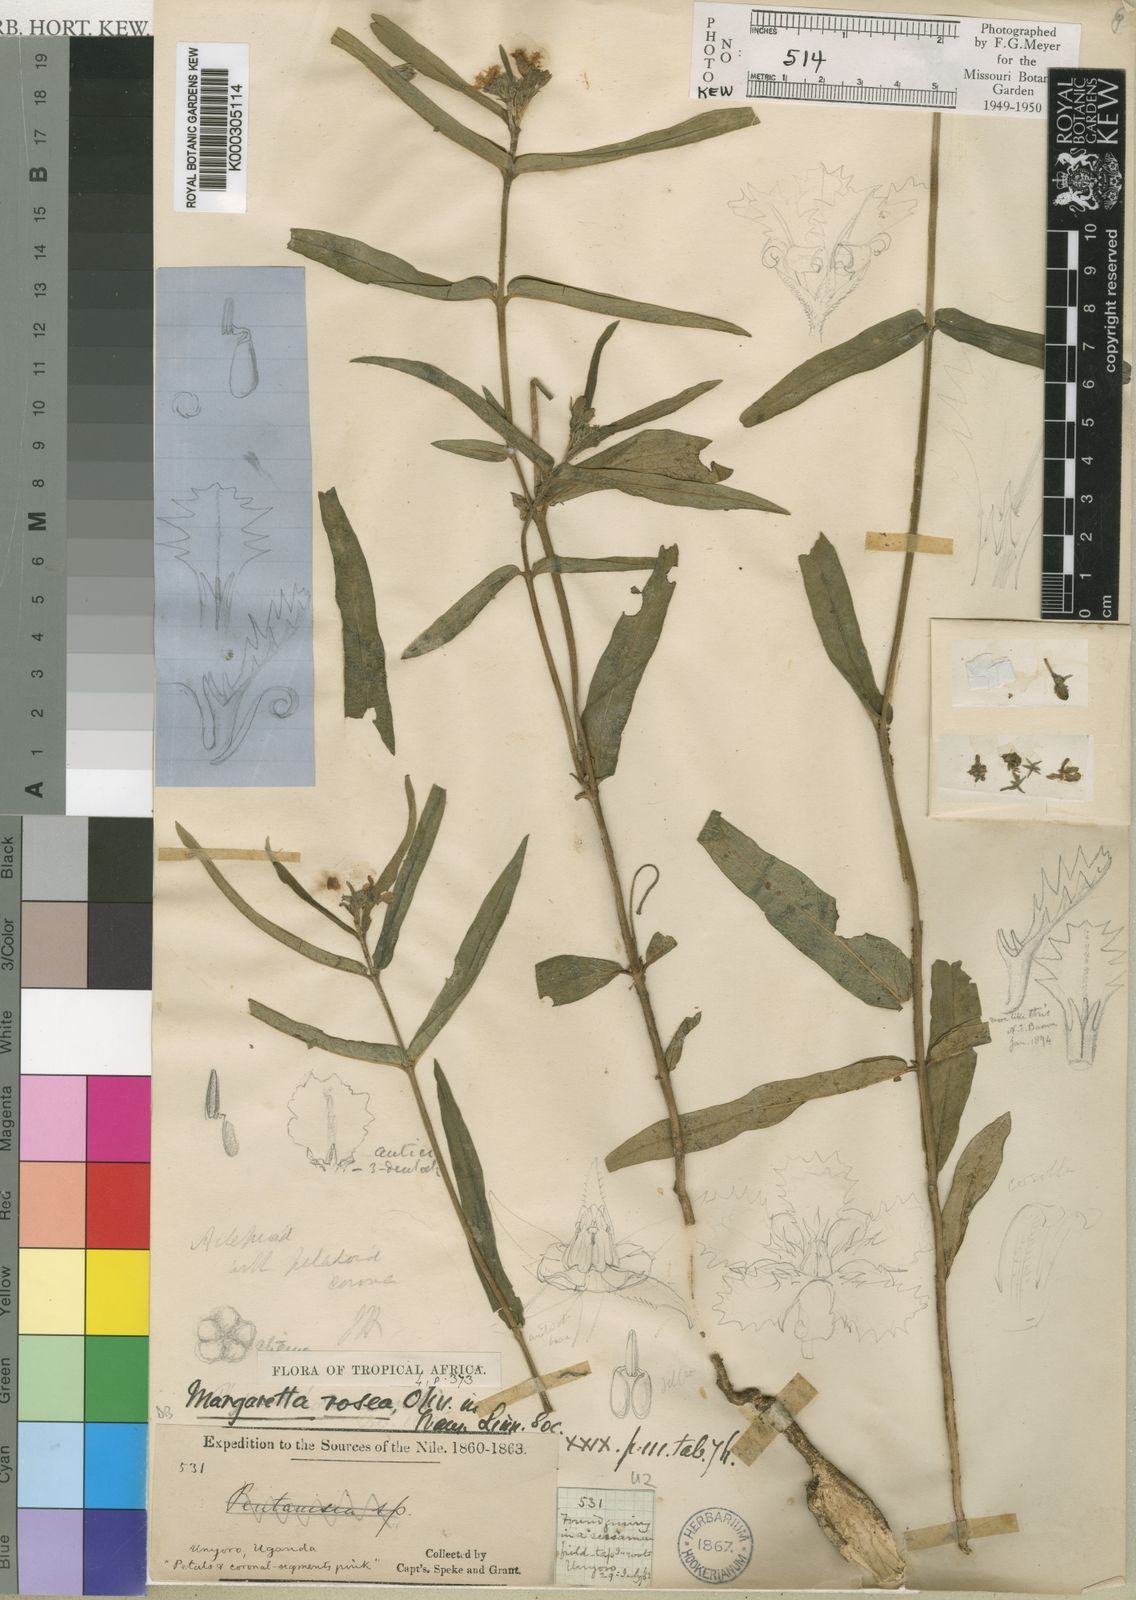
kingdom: Plantae
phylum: Tracheophyta
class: Magnoliopsida
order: Gentianales
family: Apocynaceae
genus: Margaretta
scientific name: Margaretta rosea
